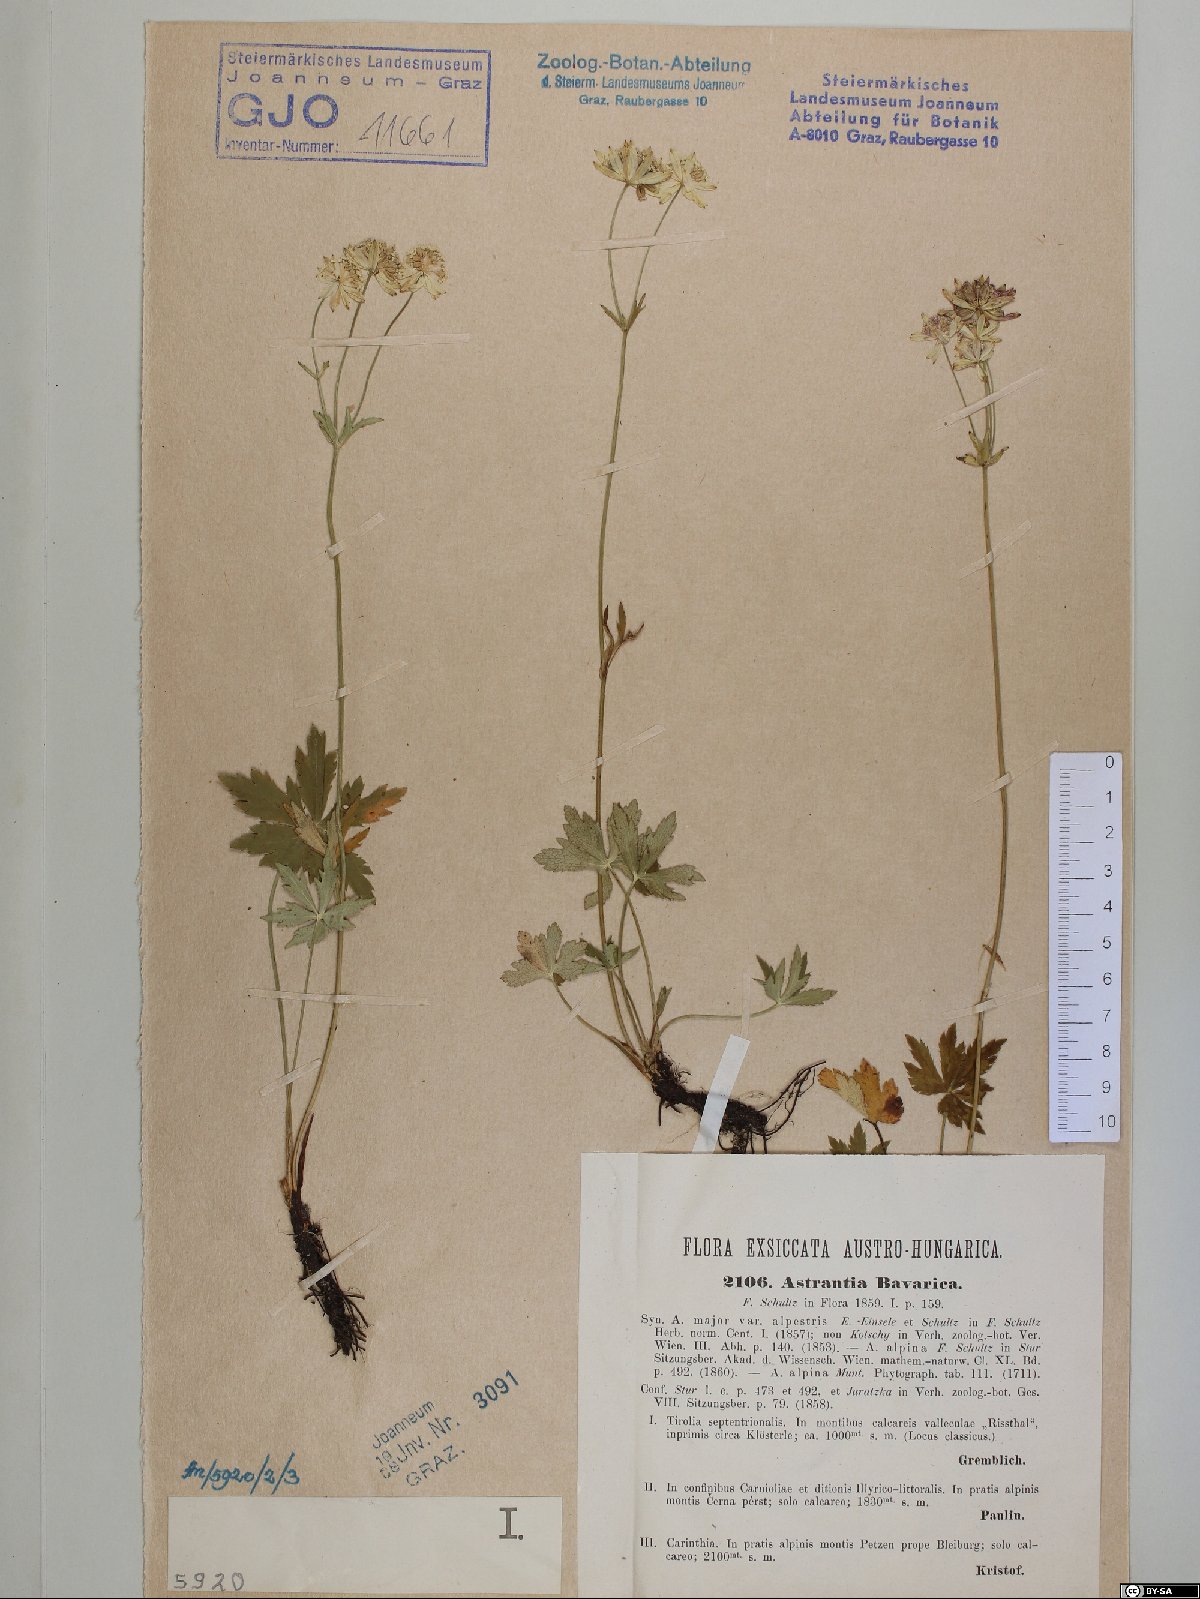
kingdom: Plantae
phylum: Tracheophyta
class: Magnoliopsida
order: Apiales
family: Apiaceae
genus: Astrantia
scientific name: Astrantia bavarica
